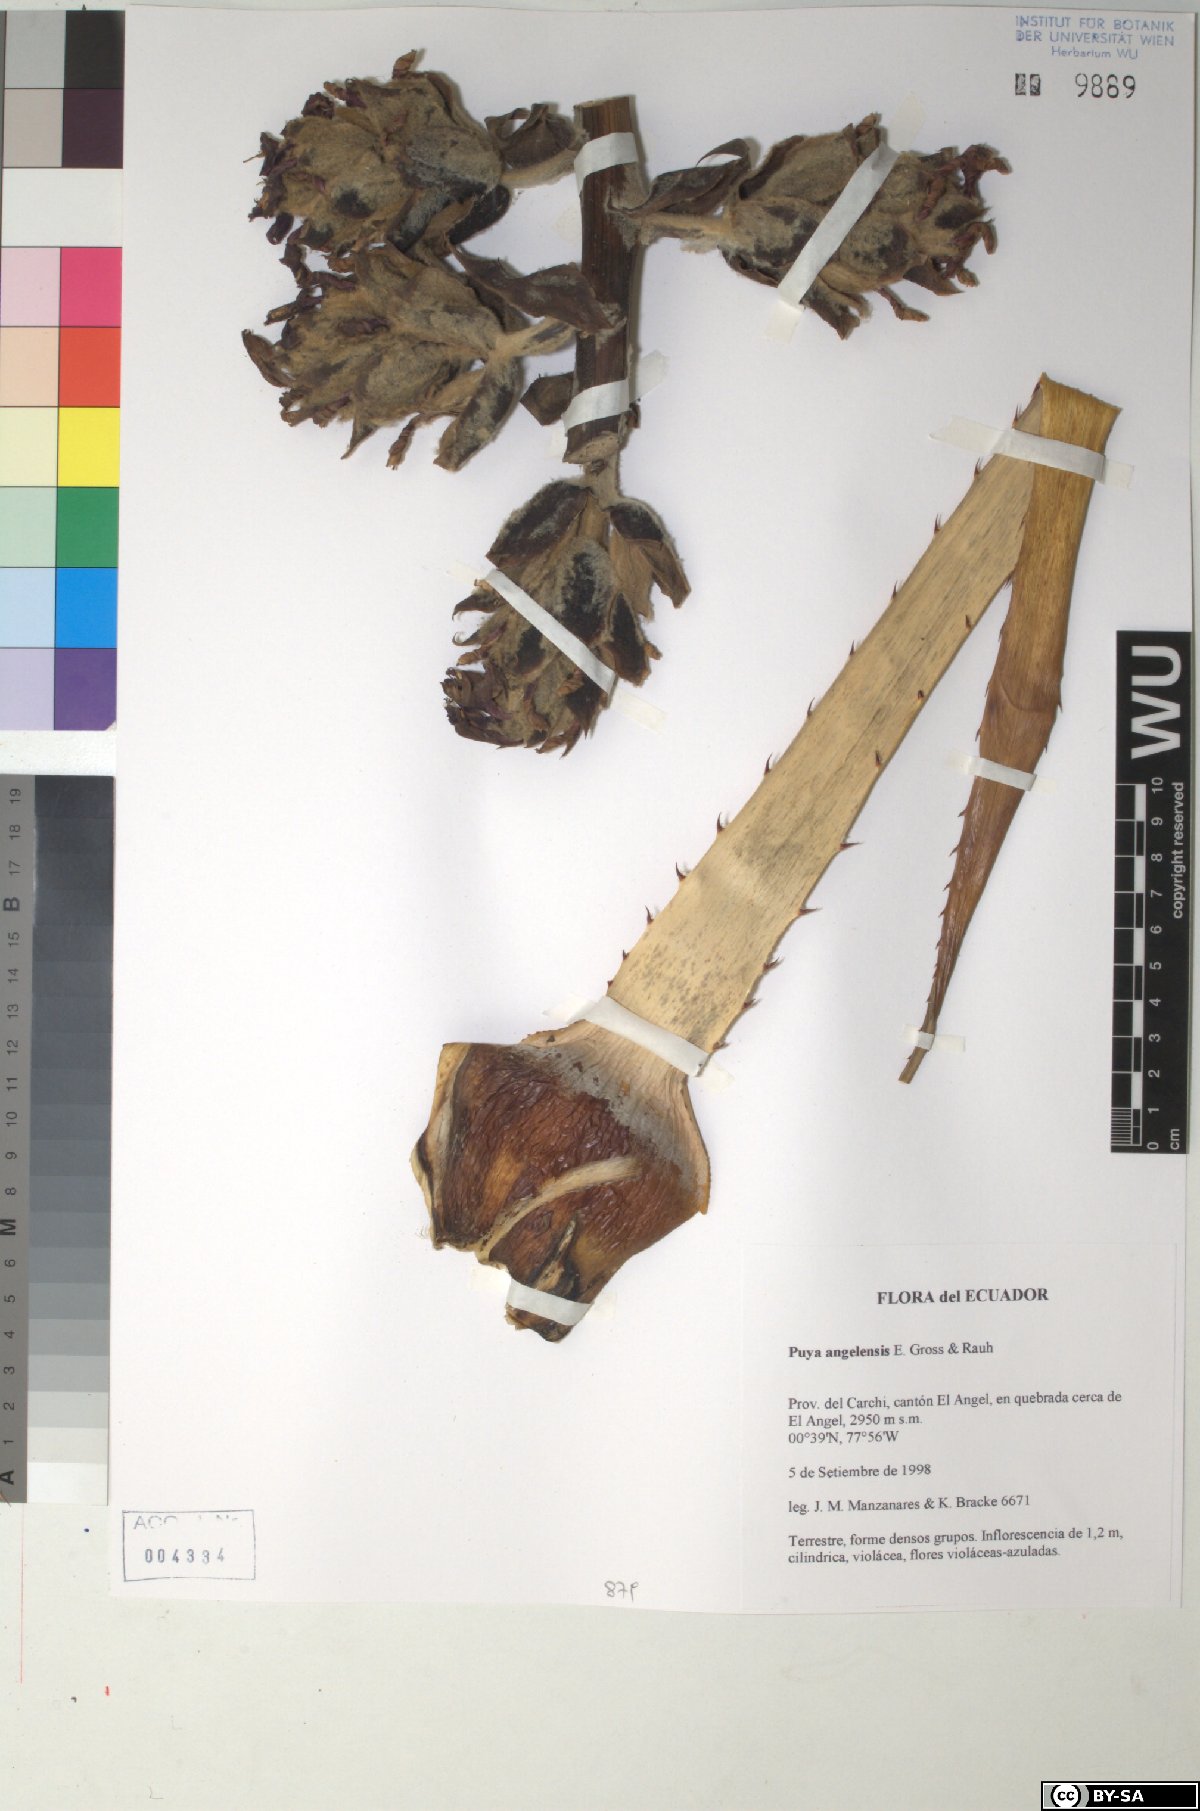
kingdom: Plantae
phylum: Tracheophyta
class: Liliopsida
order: Poales
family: Bromeliaceae
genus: Puya
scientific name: Puya angelensis
